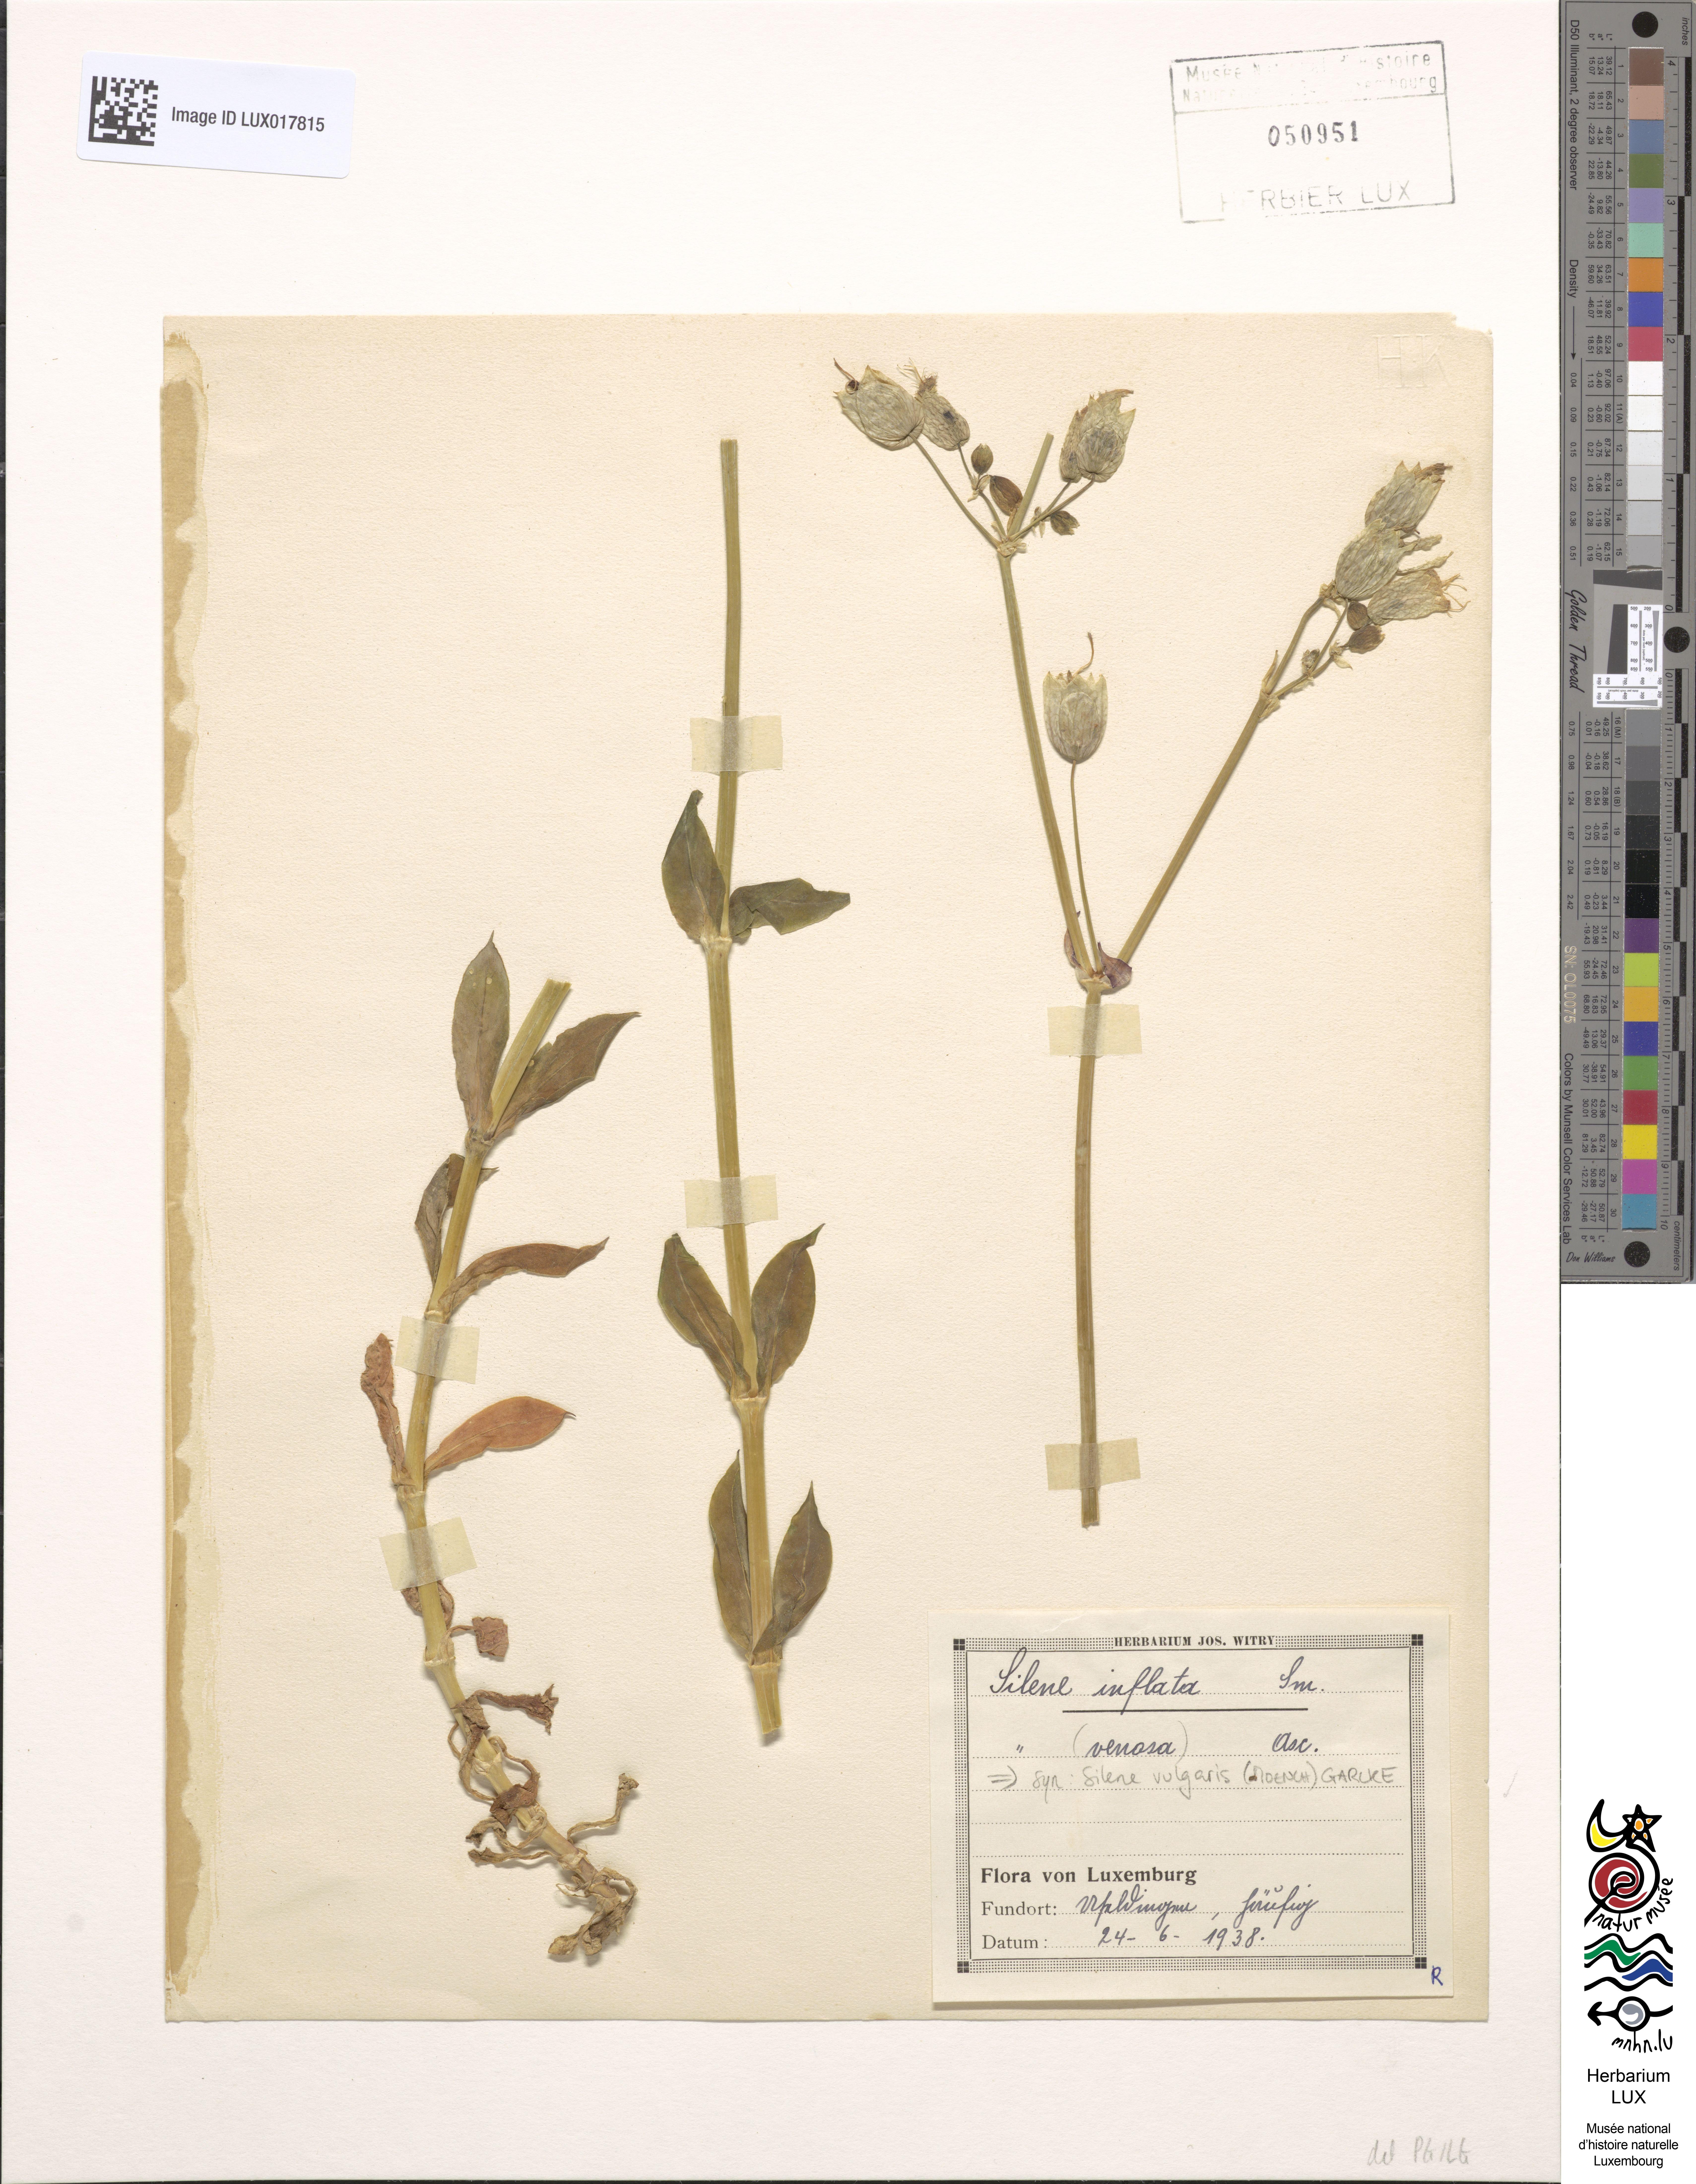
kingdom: Plantae
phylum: Tracheophyta
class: Magnoliopsida
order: Caryophyllales
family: Caryophyllaceae
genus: Silene
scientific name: Silene vulgaris
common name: Bladder campion
